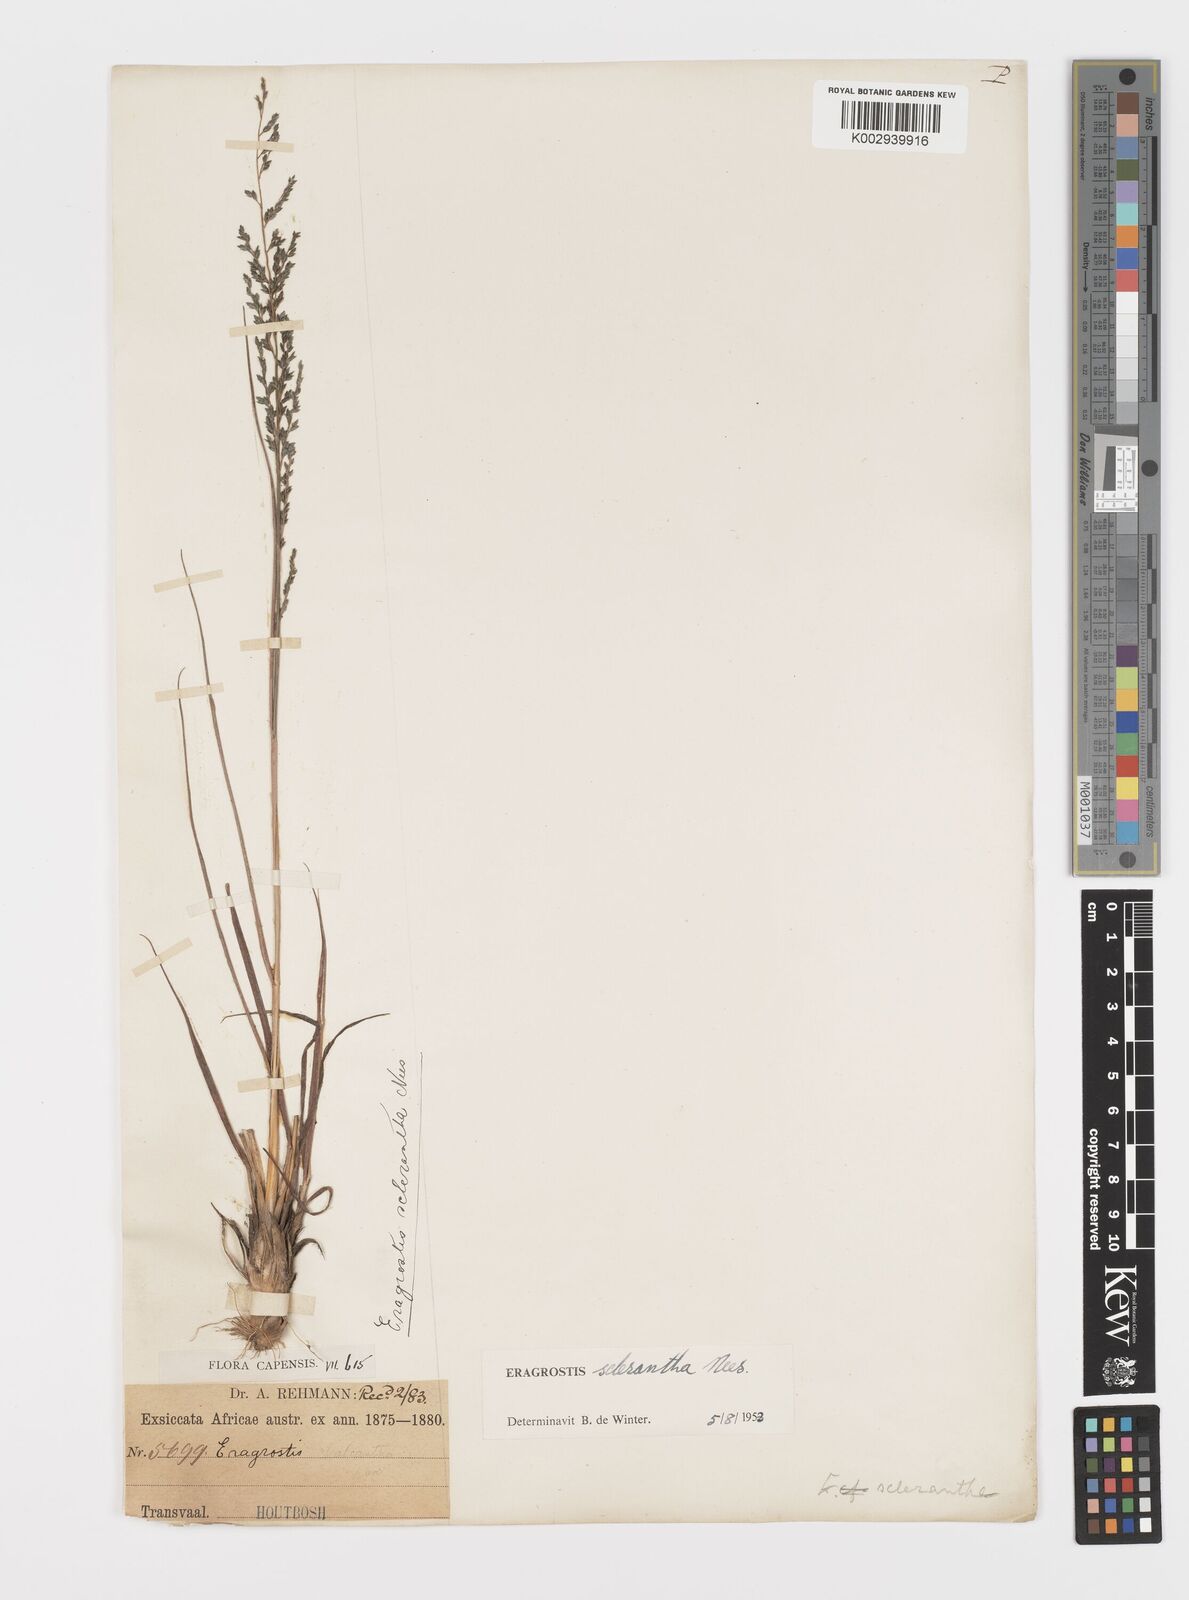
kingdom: Plantae
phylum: Tracheophyta
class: Liliopsida
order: Poales
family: Poaceae
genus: Eragrostis
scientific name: Eragrostis sclerantha
